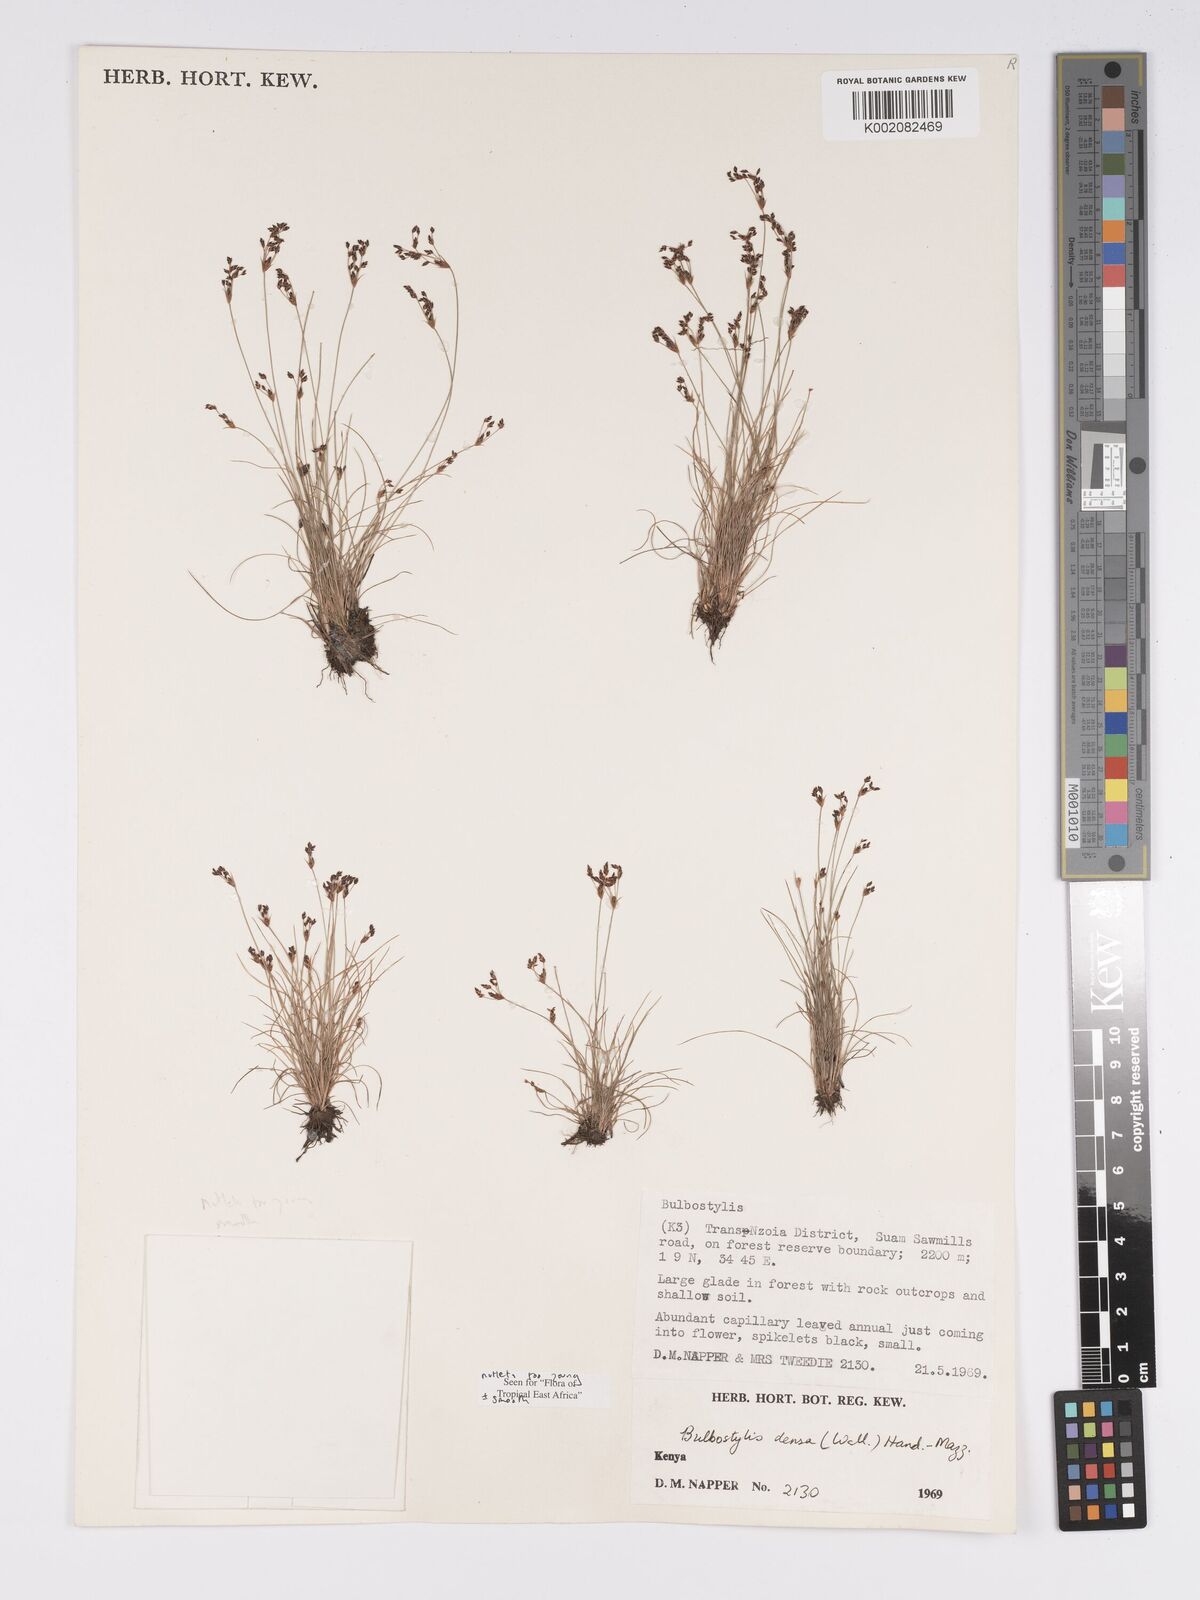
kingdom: Plantae
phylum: Tracheophyta
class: Liliopsida
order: Poales
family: Cyperaceae
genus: Bulbostylis
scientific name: Bulbostylis densa
